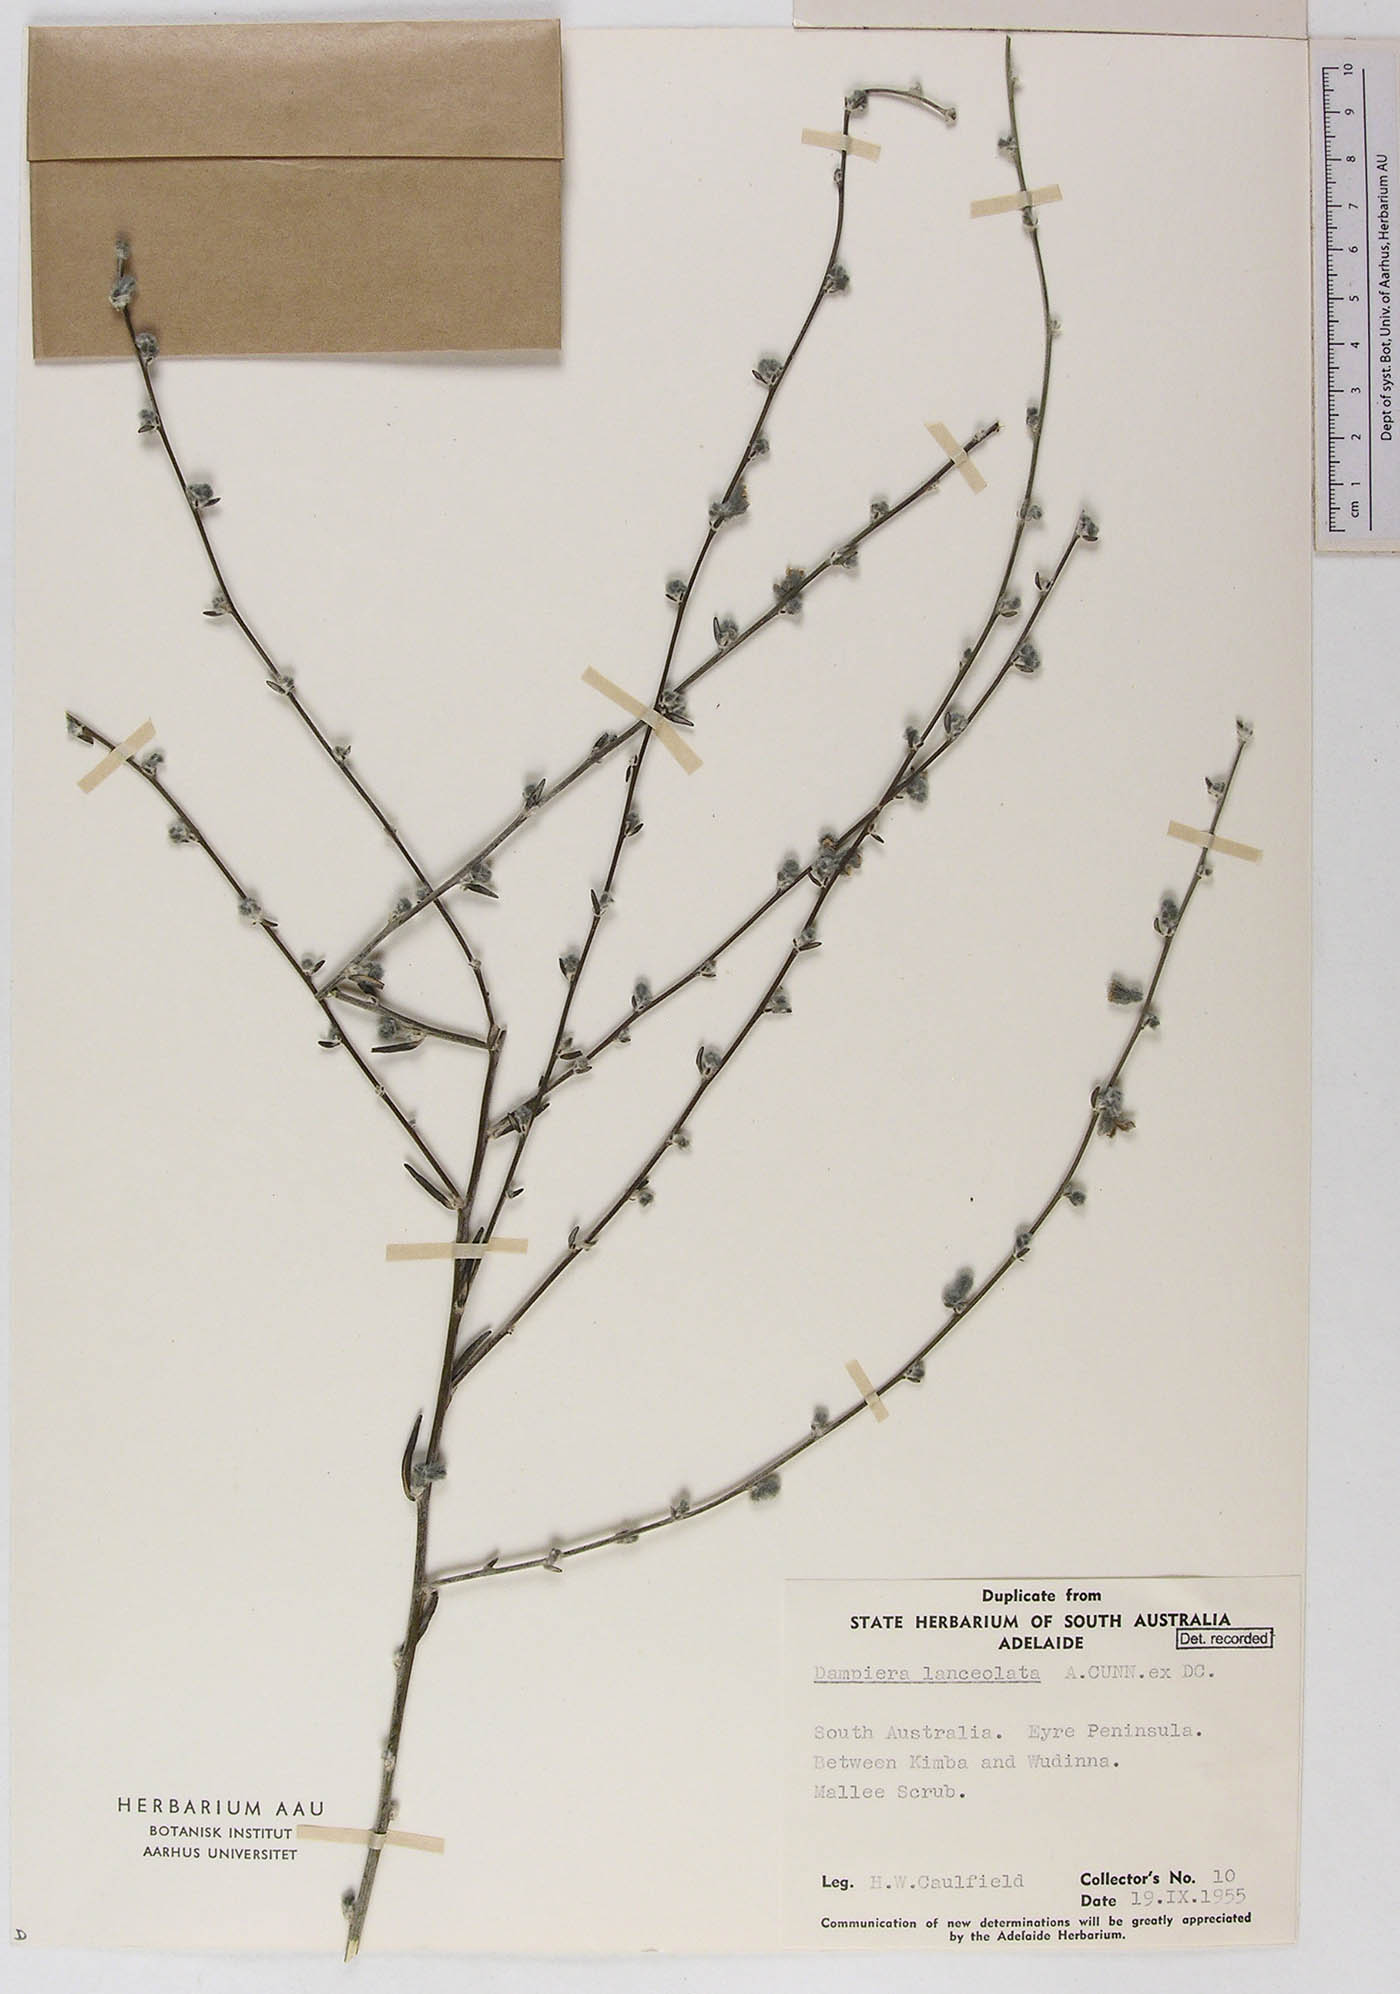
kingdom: Plantae
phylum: Tracheophyta
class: Magnoliopsida
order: Asterales
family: Goodeniaceae
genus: Dampiera
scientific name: Dampiera lanceolata
